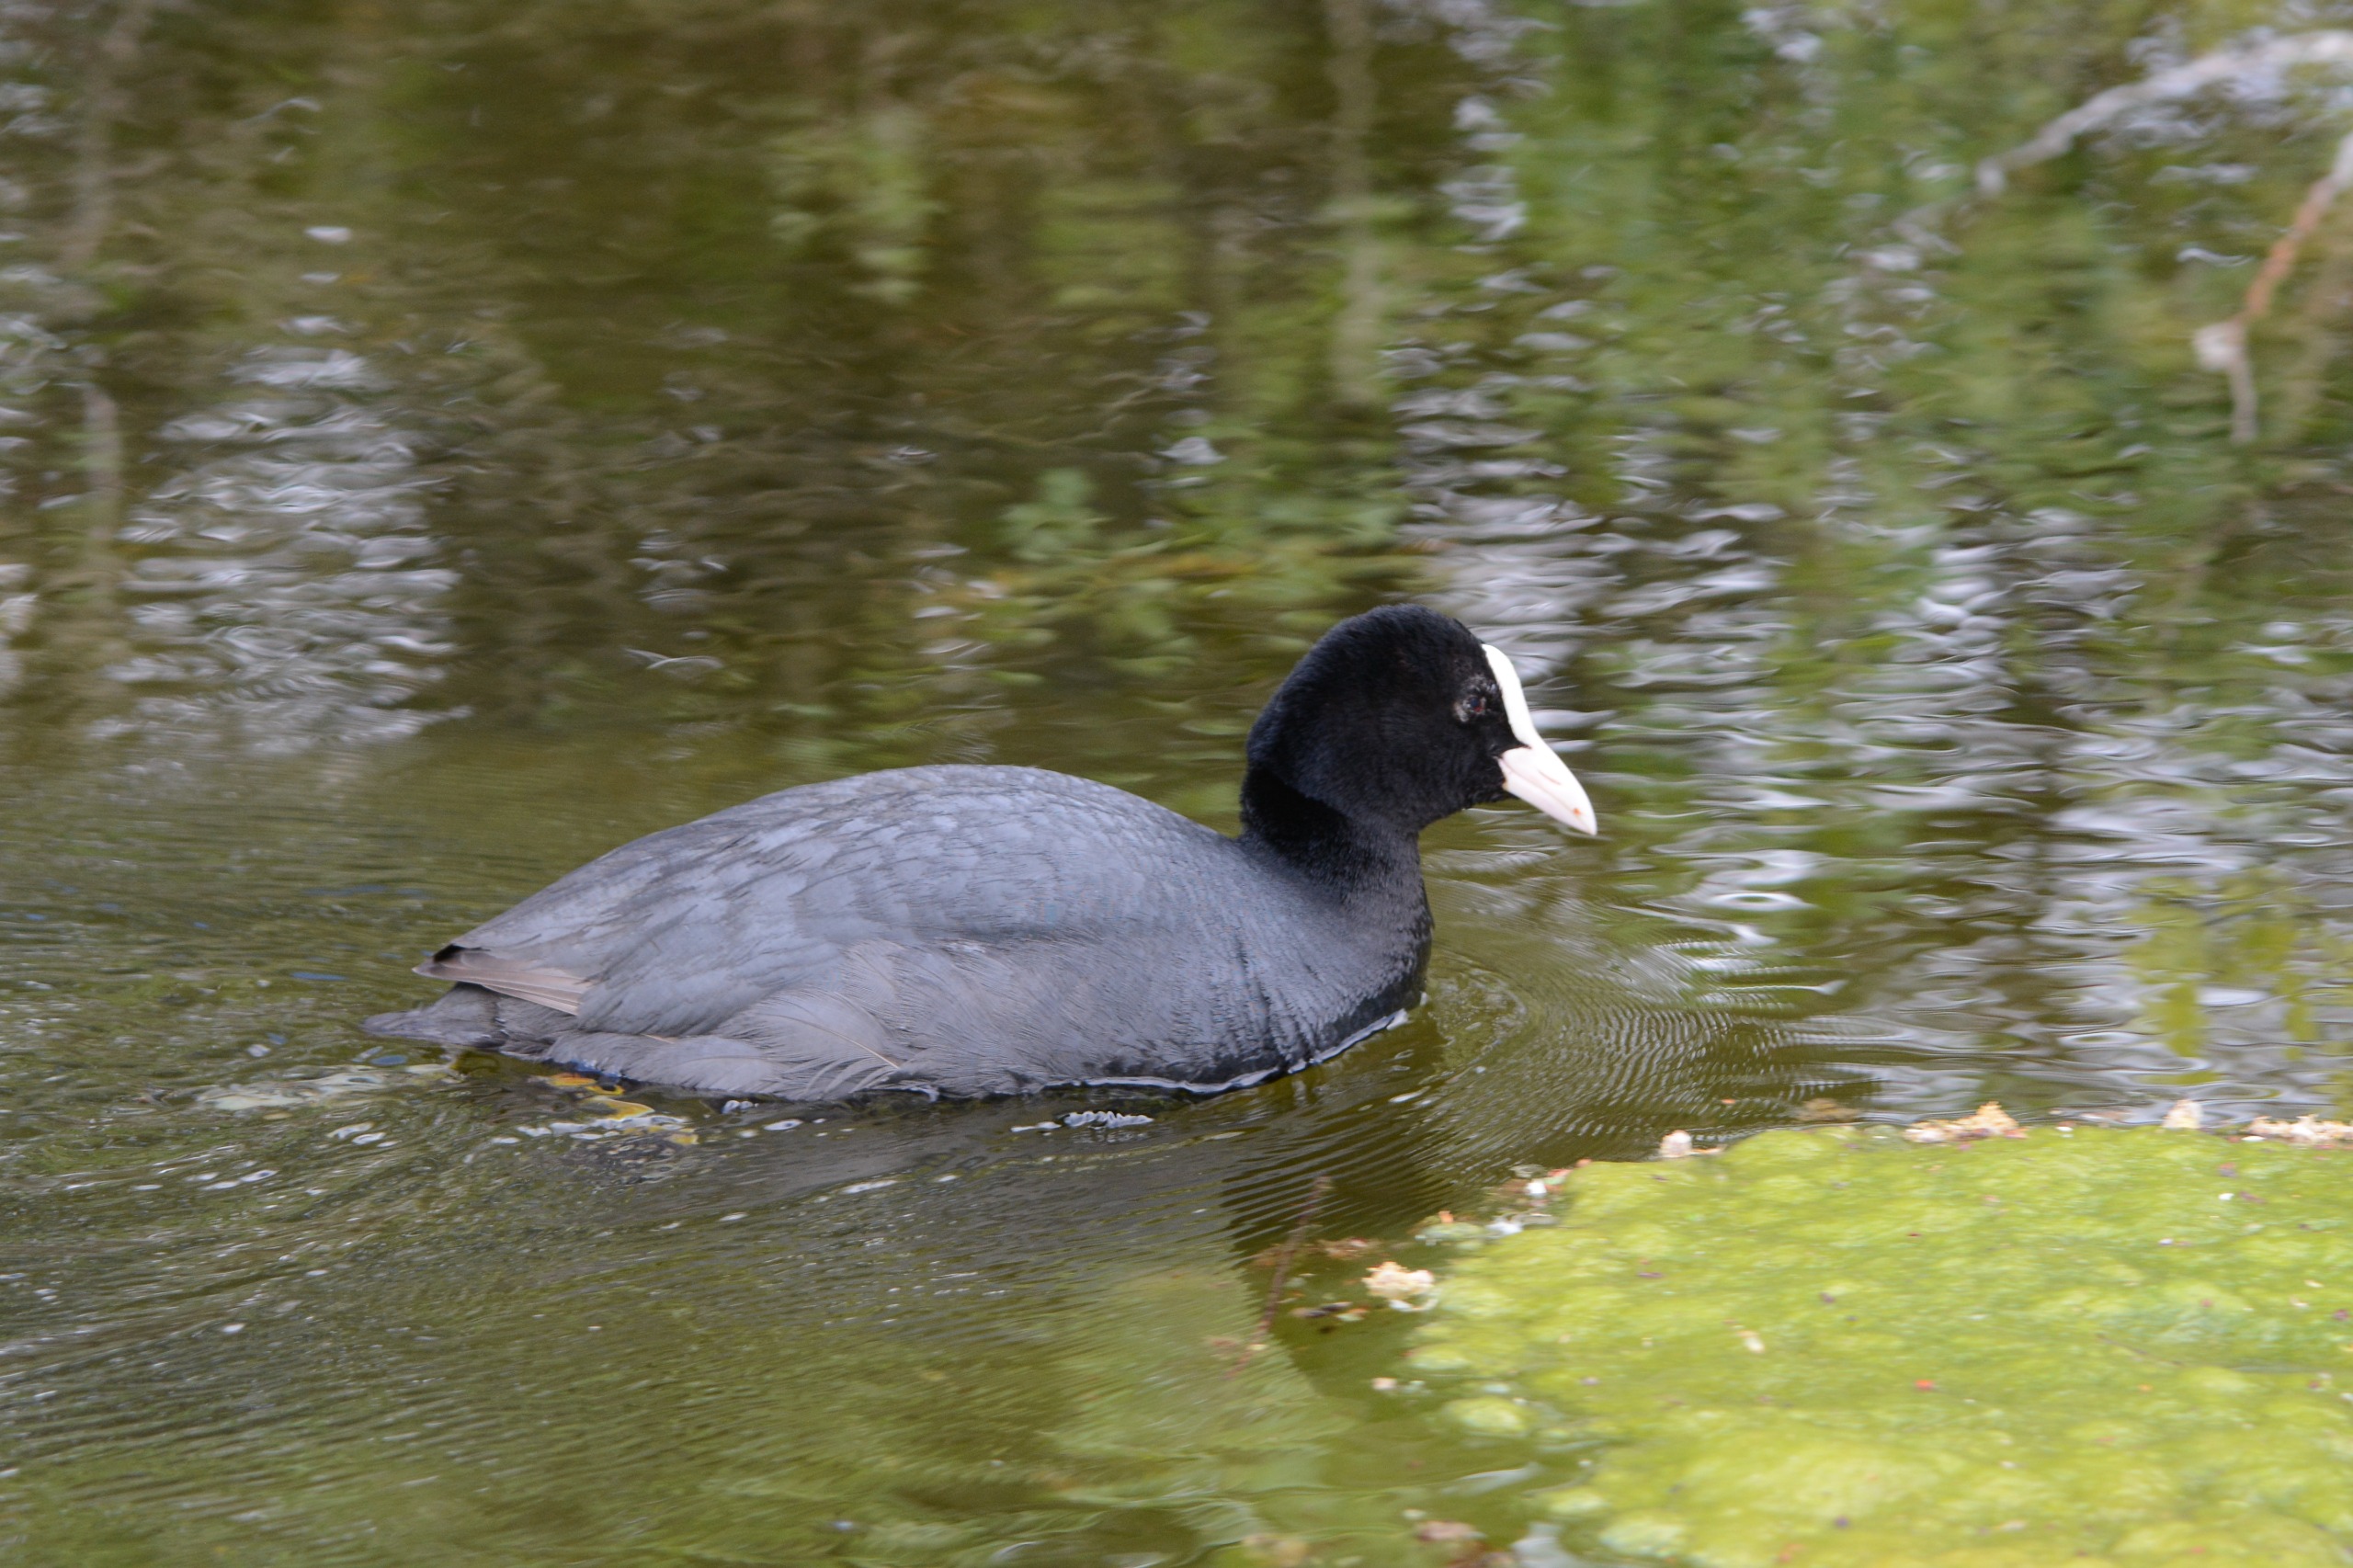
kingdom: Animalia
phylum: Chordata
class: Aves
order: Gruiformes
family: Rallidae
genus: Fulica
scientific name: Fulica atra
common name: Blishøne
